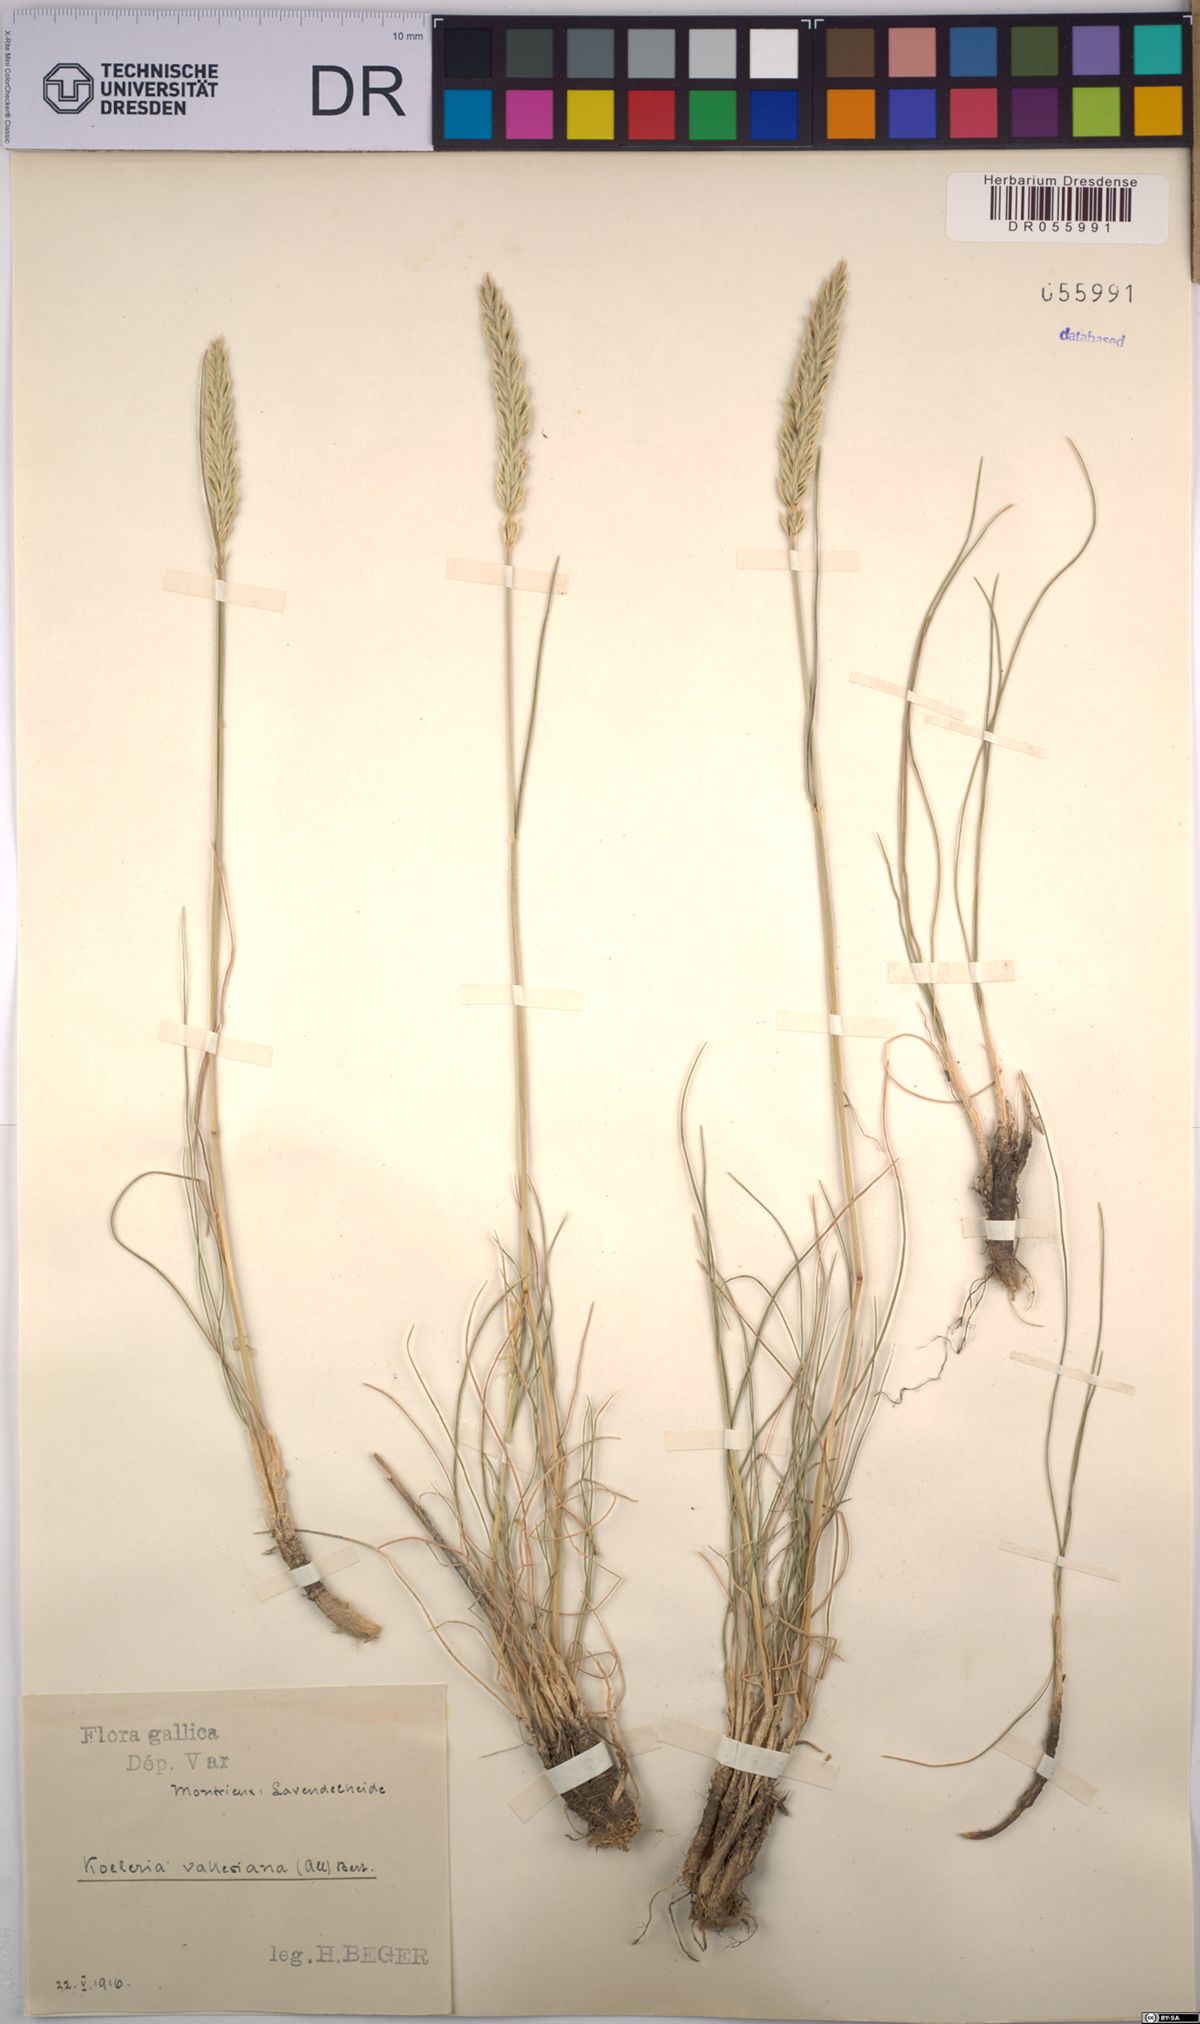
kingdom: Plantae
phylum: Tracheophyta
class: Liliopsida
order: Poales
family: Poaceae
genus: Koeleria
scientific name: Koeleria vallesiana
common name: Somerset hair-grass
